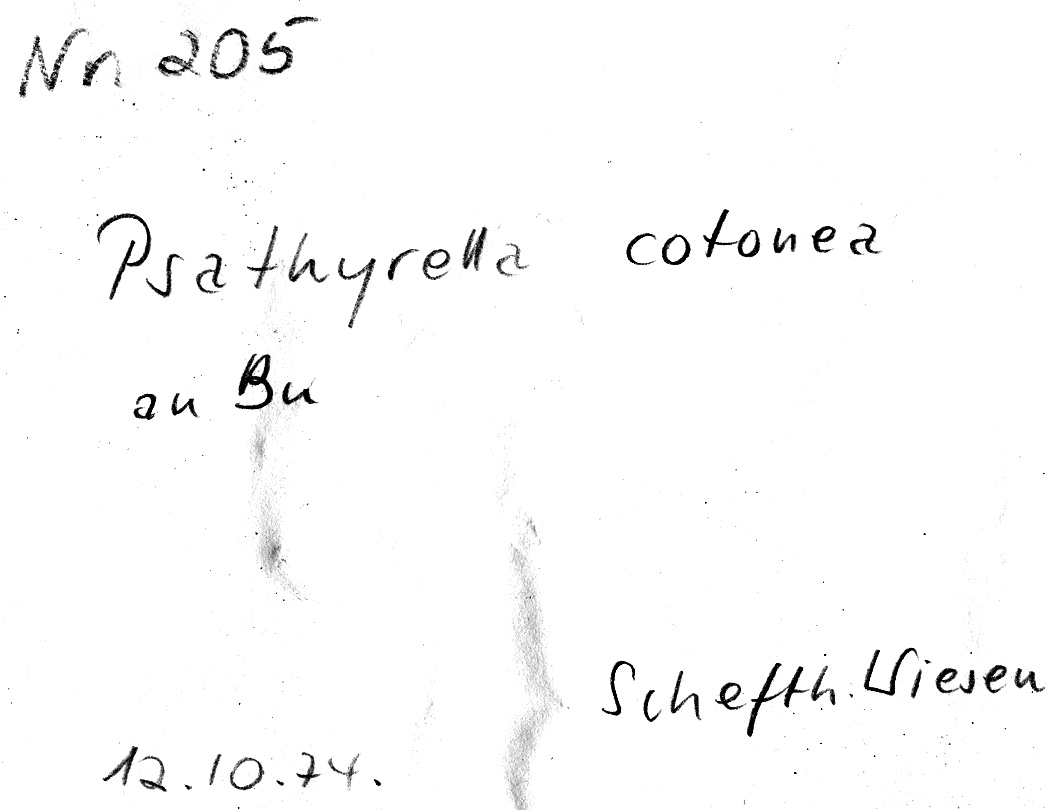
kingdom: Fungi
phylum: Basidiomycota
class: Agaricomycetes
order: Agaricales
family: Psathyrellaceae
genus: Psathyrella
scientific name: Psathyrella cotonea
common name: Yellowfoot brittlestem
